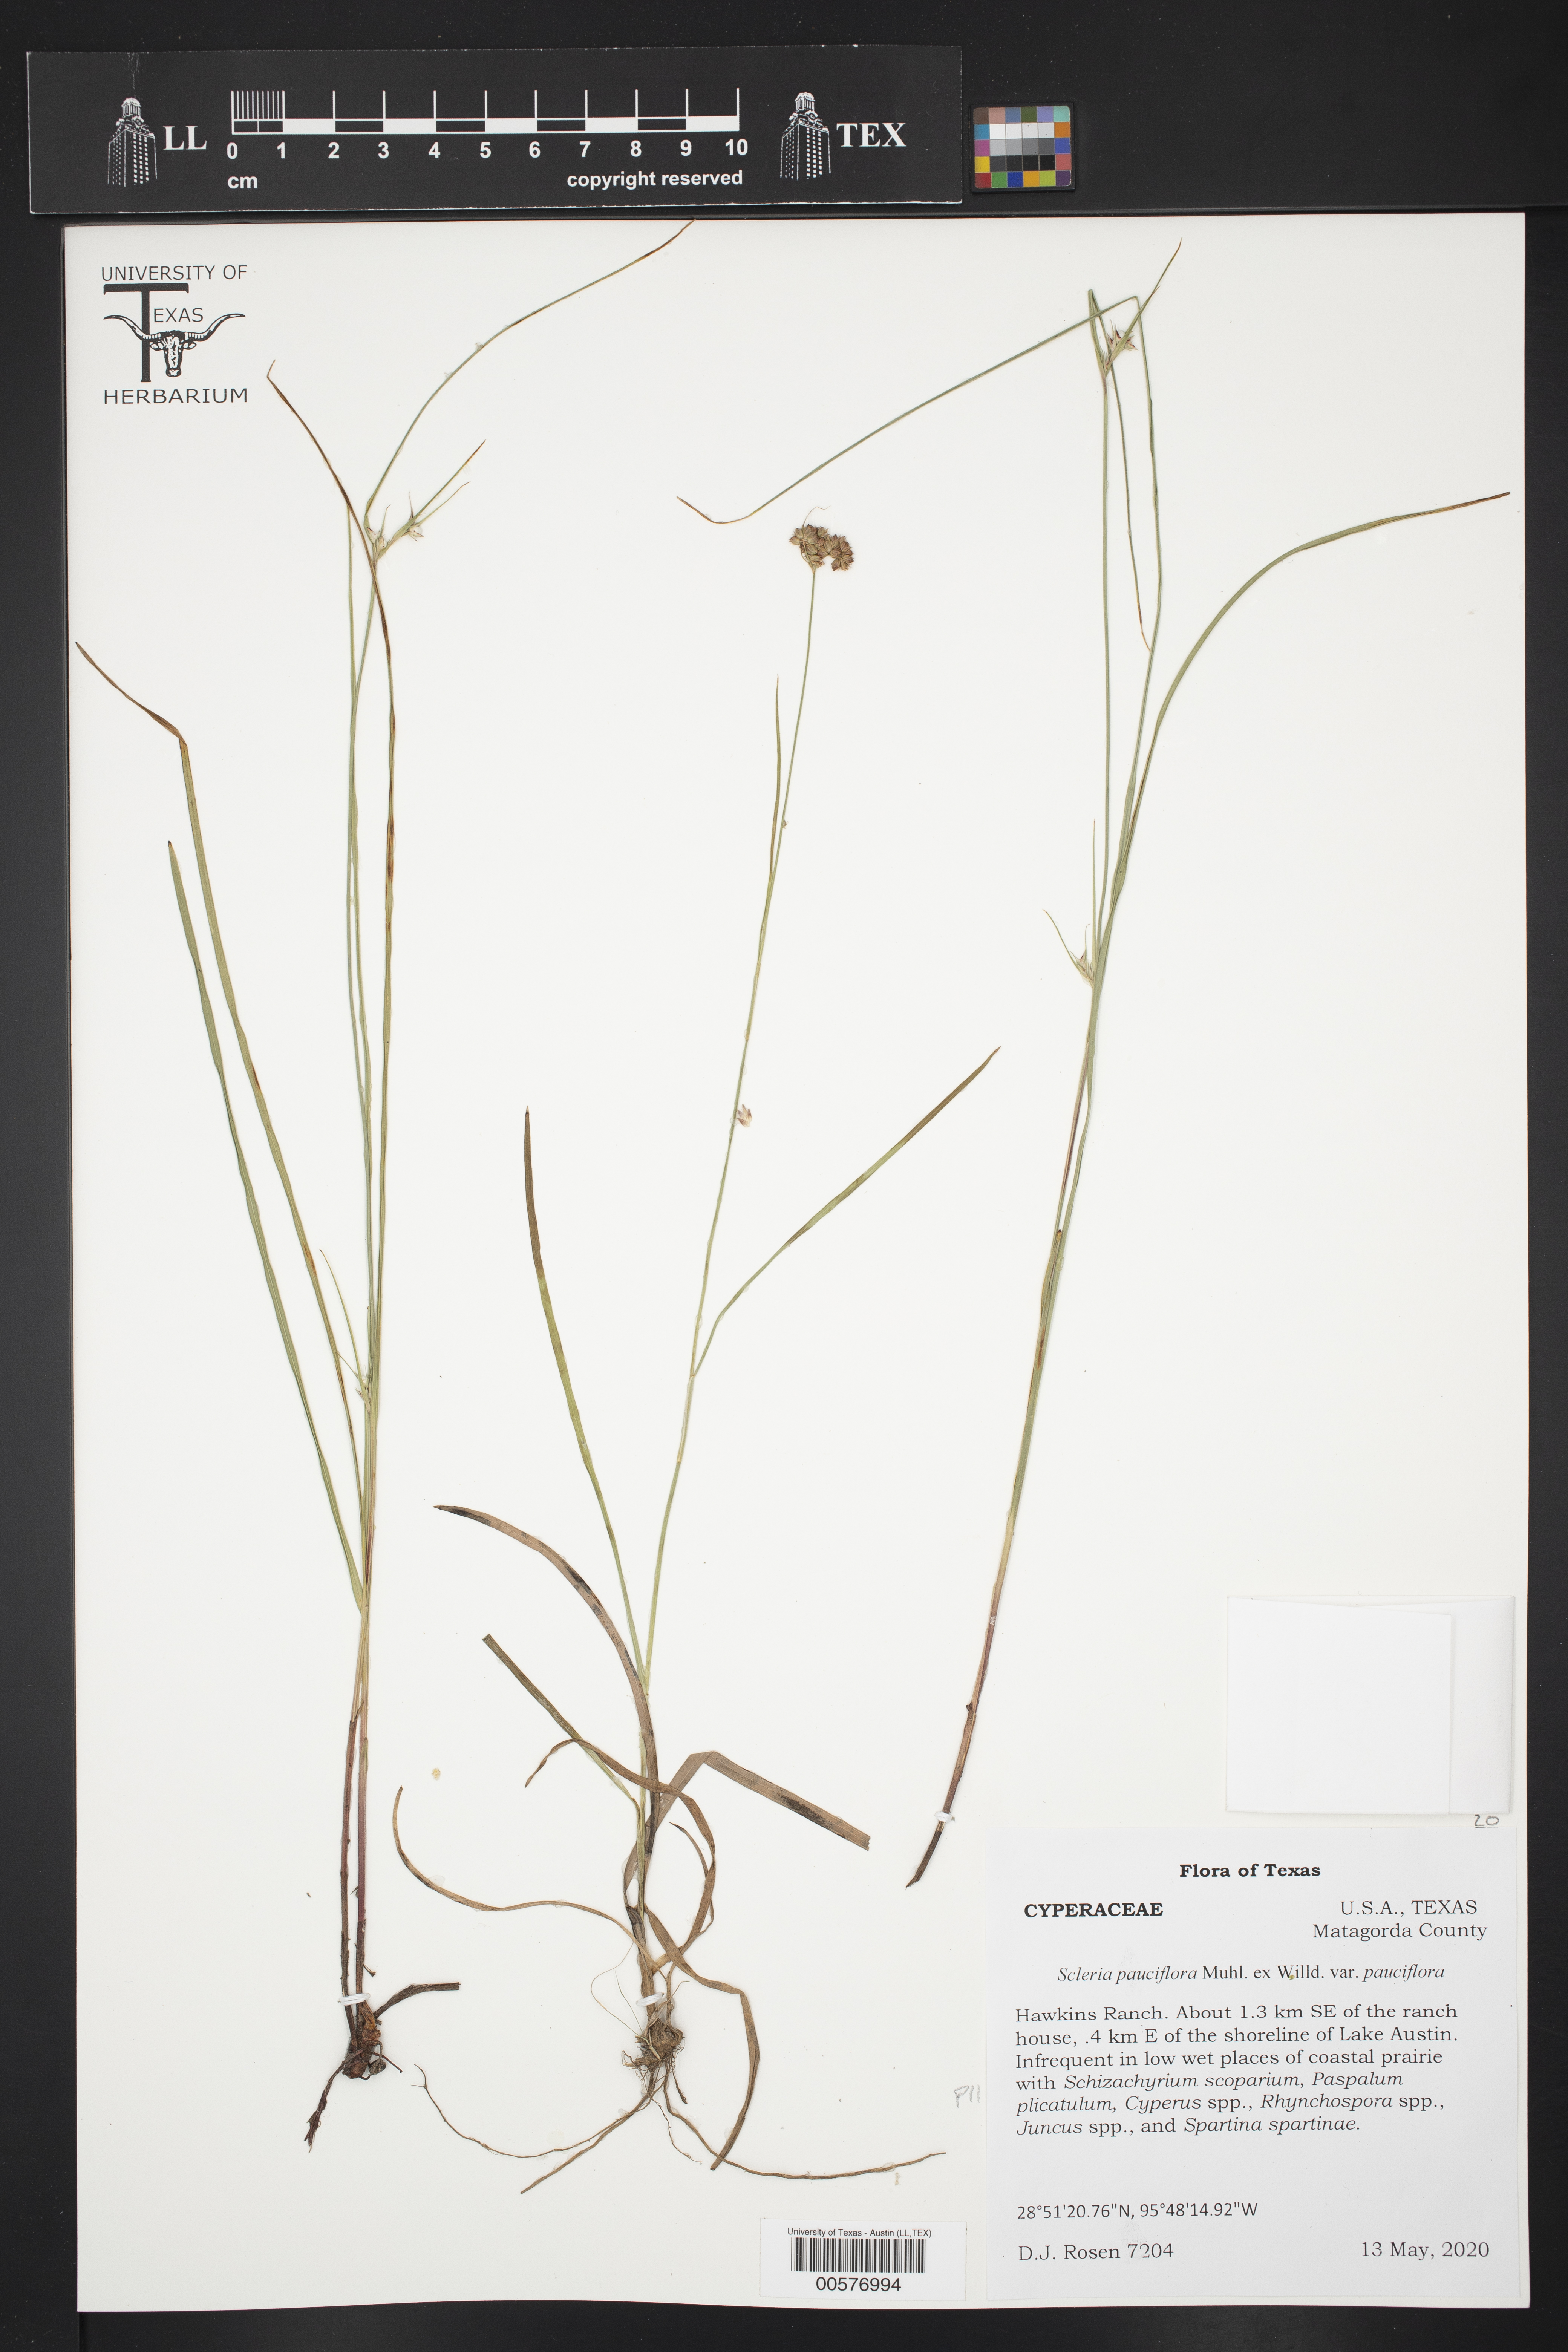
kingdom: Plantae
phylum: Tracheophyta
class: Liliopsida
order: Poales
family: Cyperaceae
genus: Scleria
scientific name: Scleria pauciflora
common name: Few-flowered nutrush
